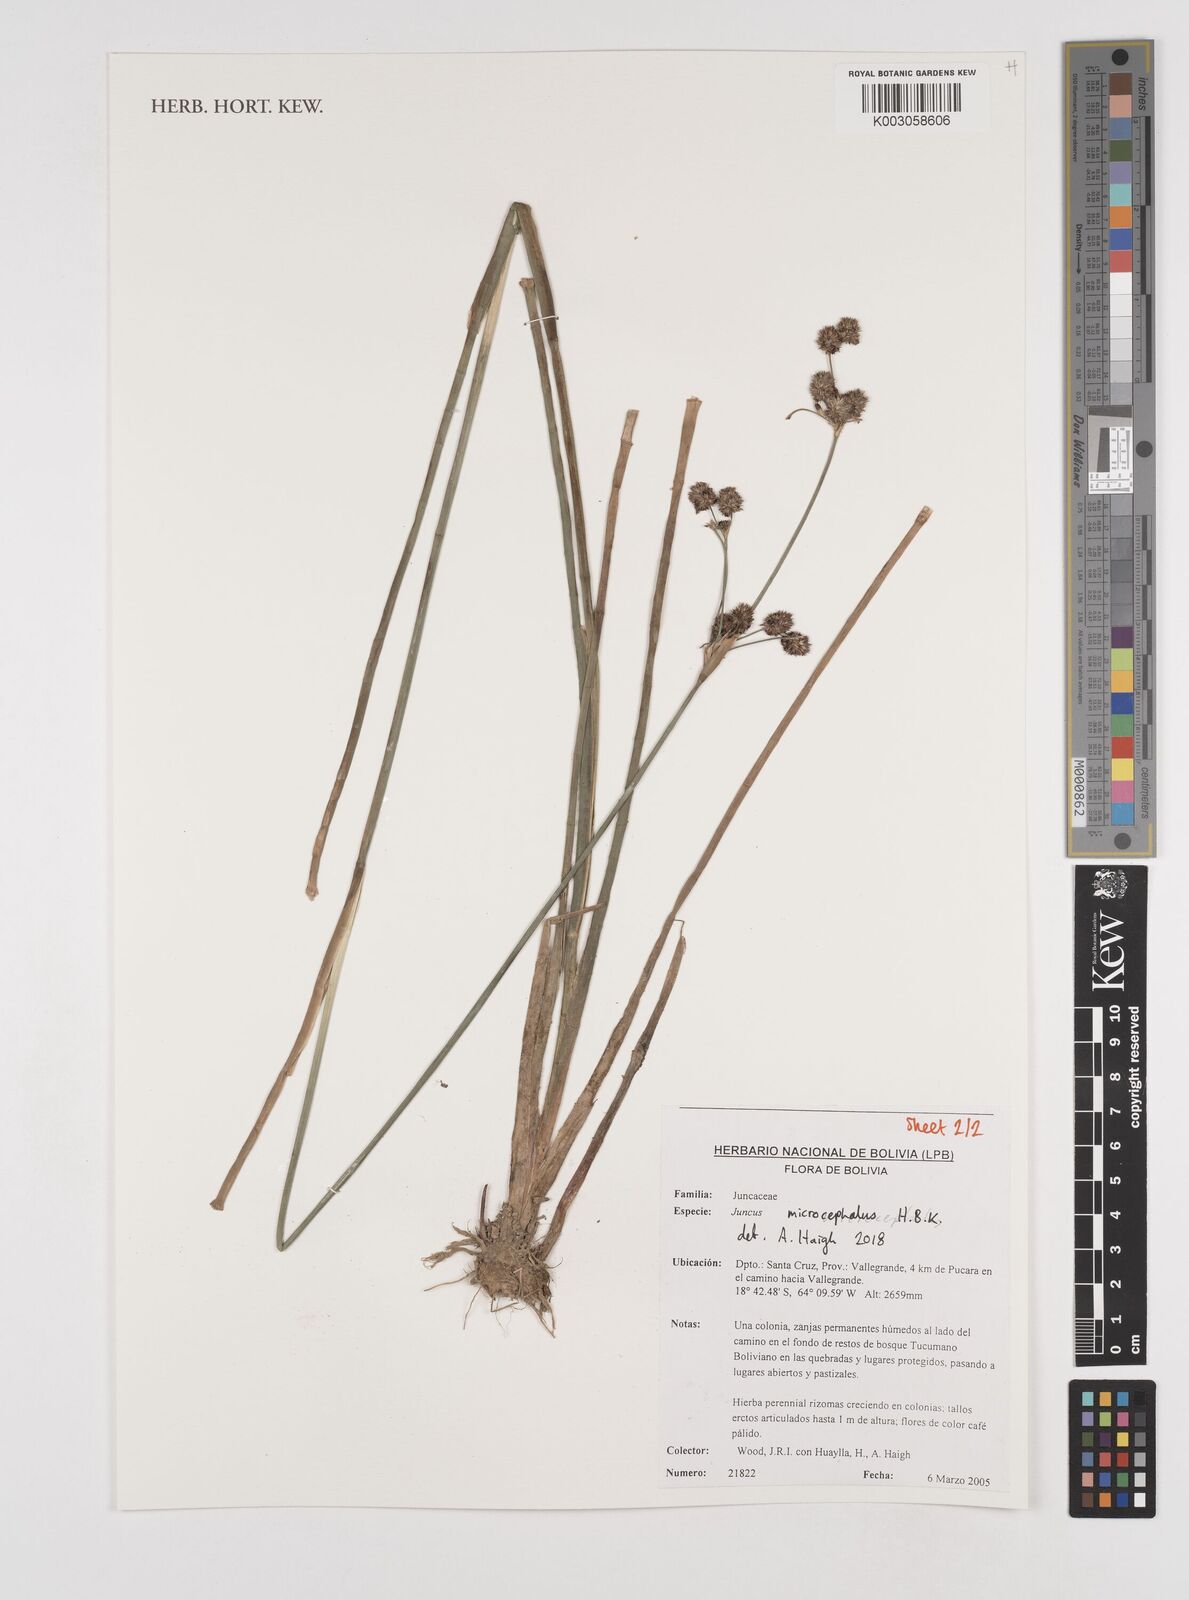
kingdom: Plantae
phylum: Tracheophyta
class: Liliopsida
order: Poales
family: Juncaceae
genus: Juncus
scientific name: Juncus
